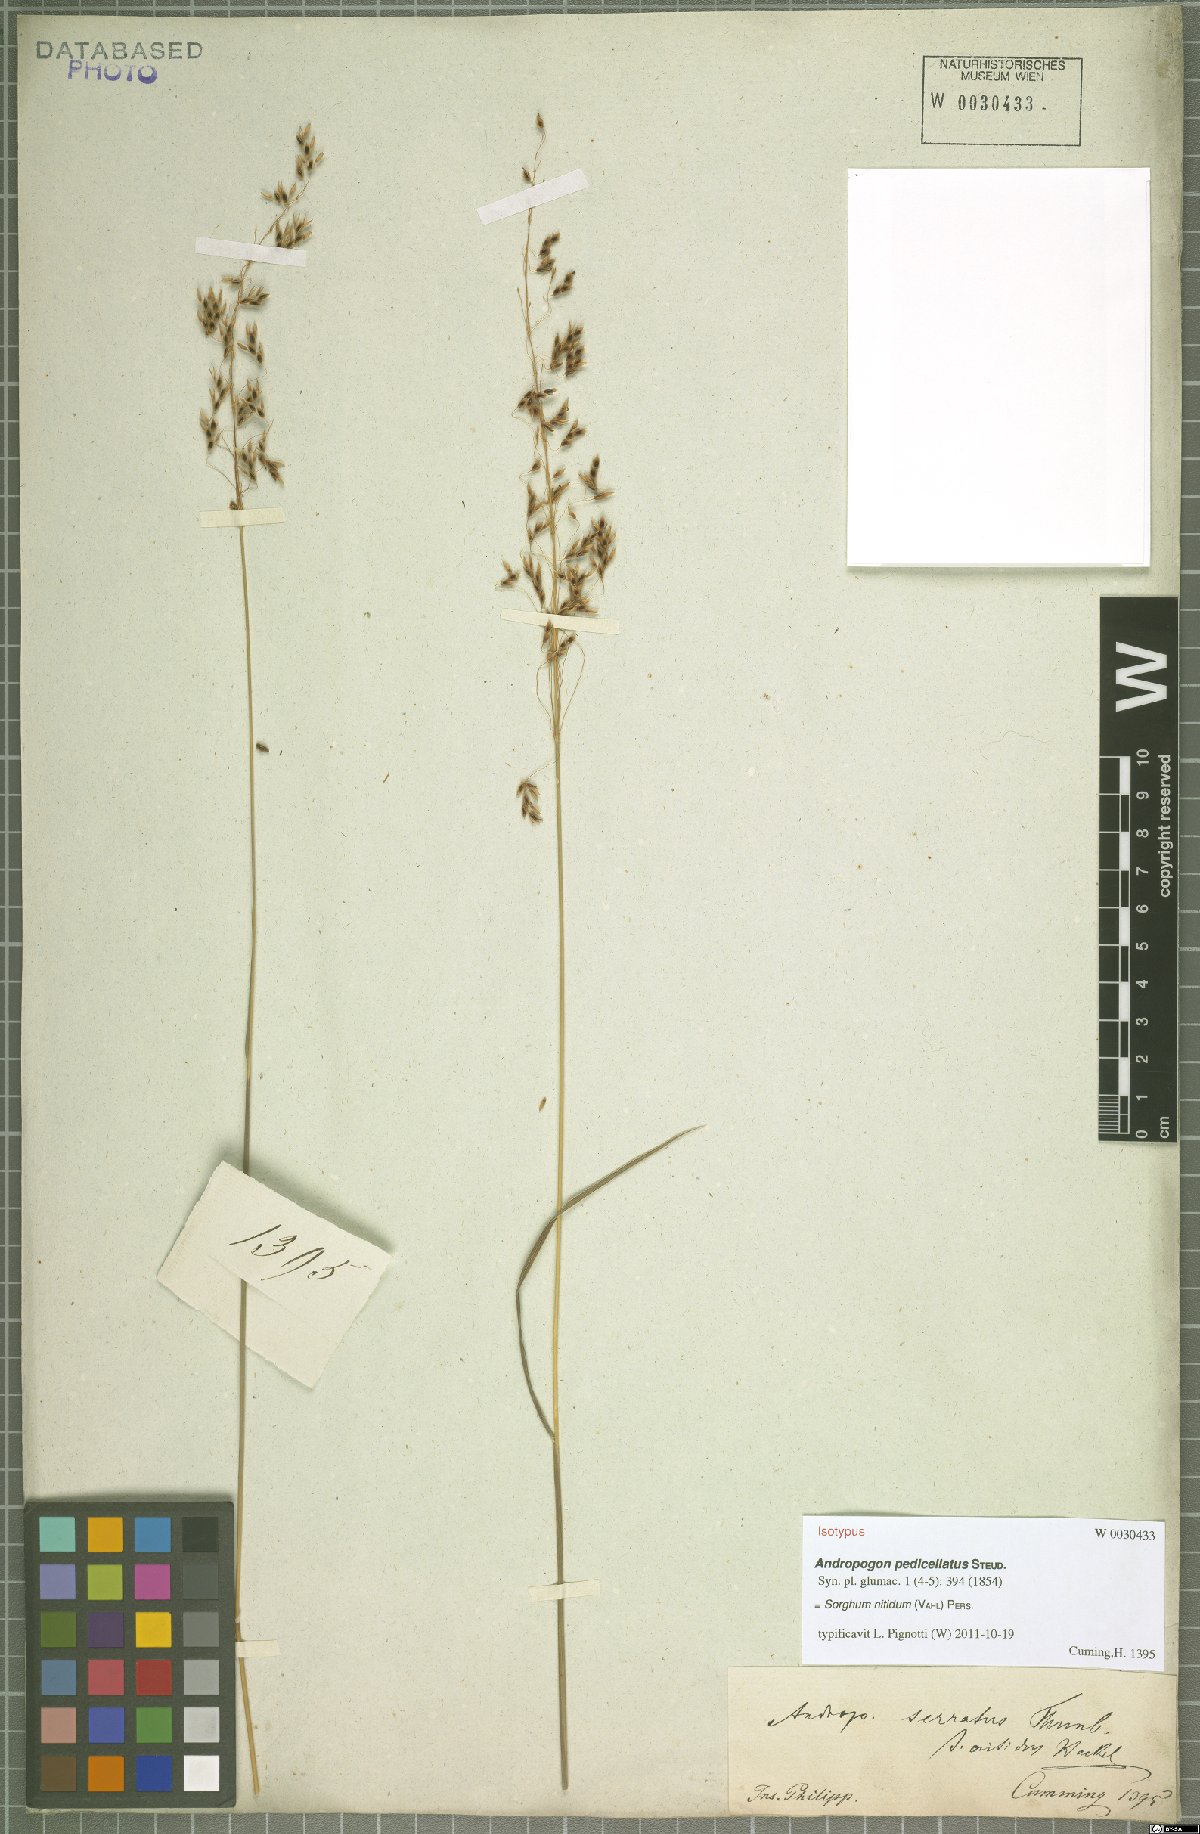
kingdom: Plantae
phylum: Tracheophyta
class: Liliopsida
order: Poales
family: Poaceae
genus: Sorghum
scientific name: Sorghum nitidum
